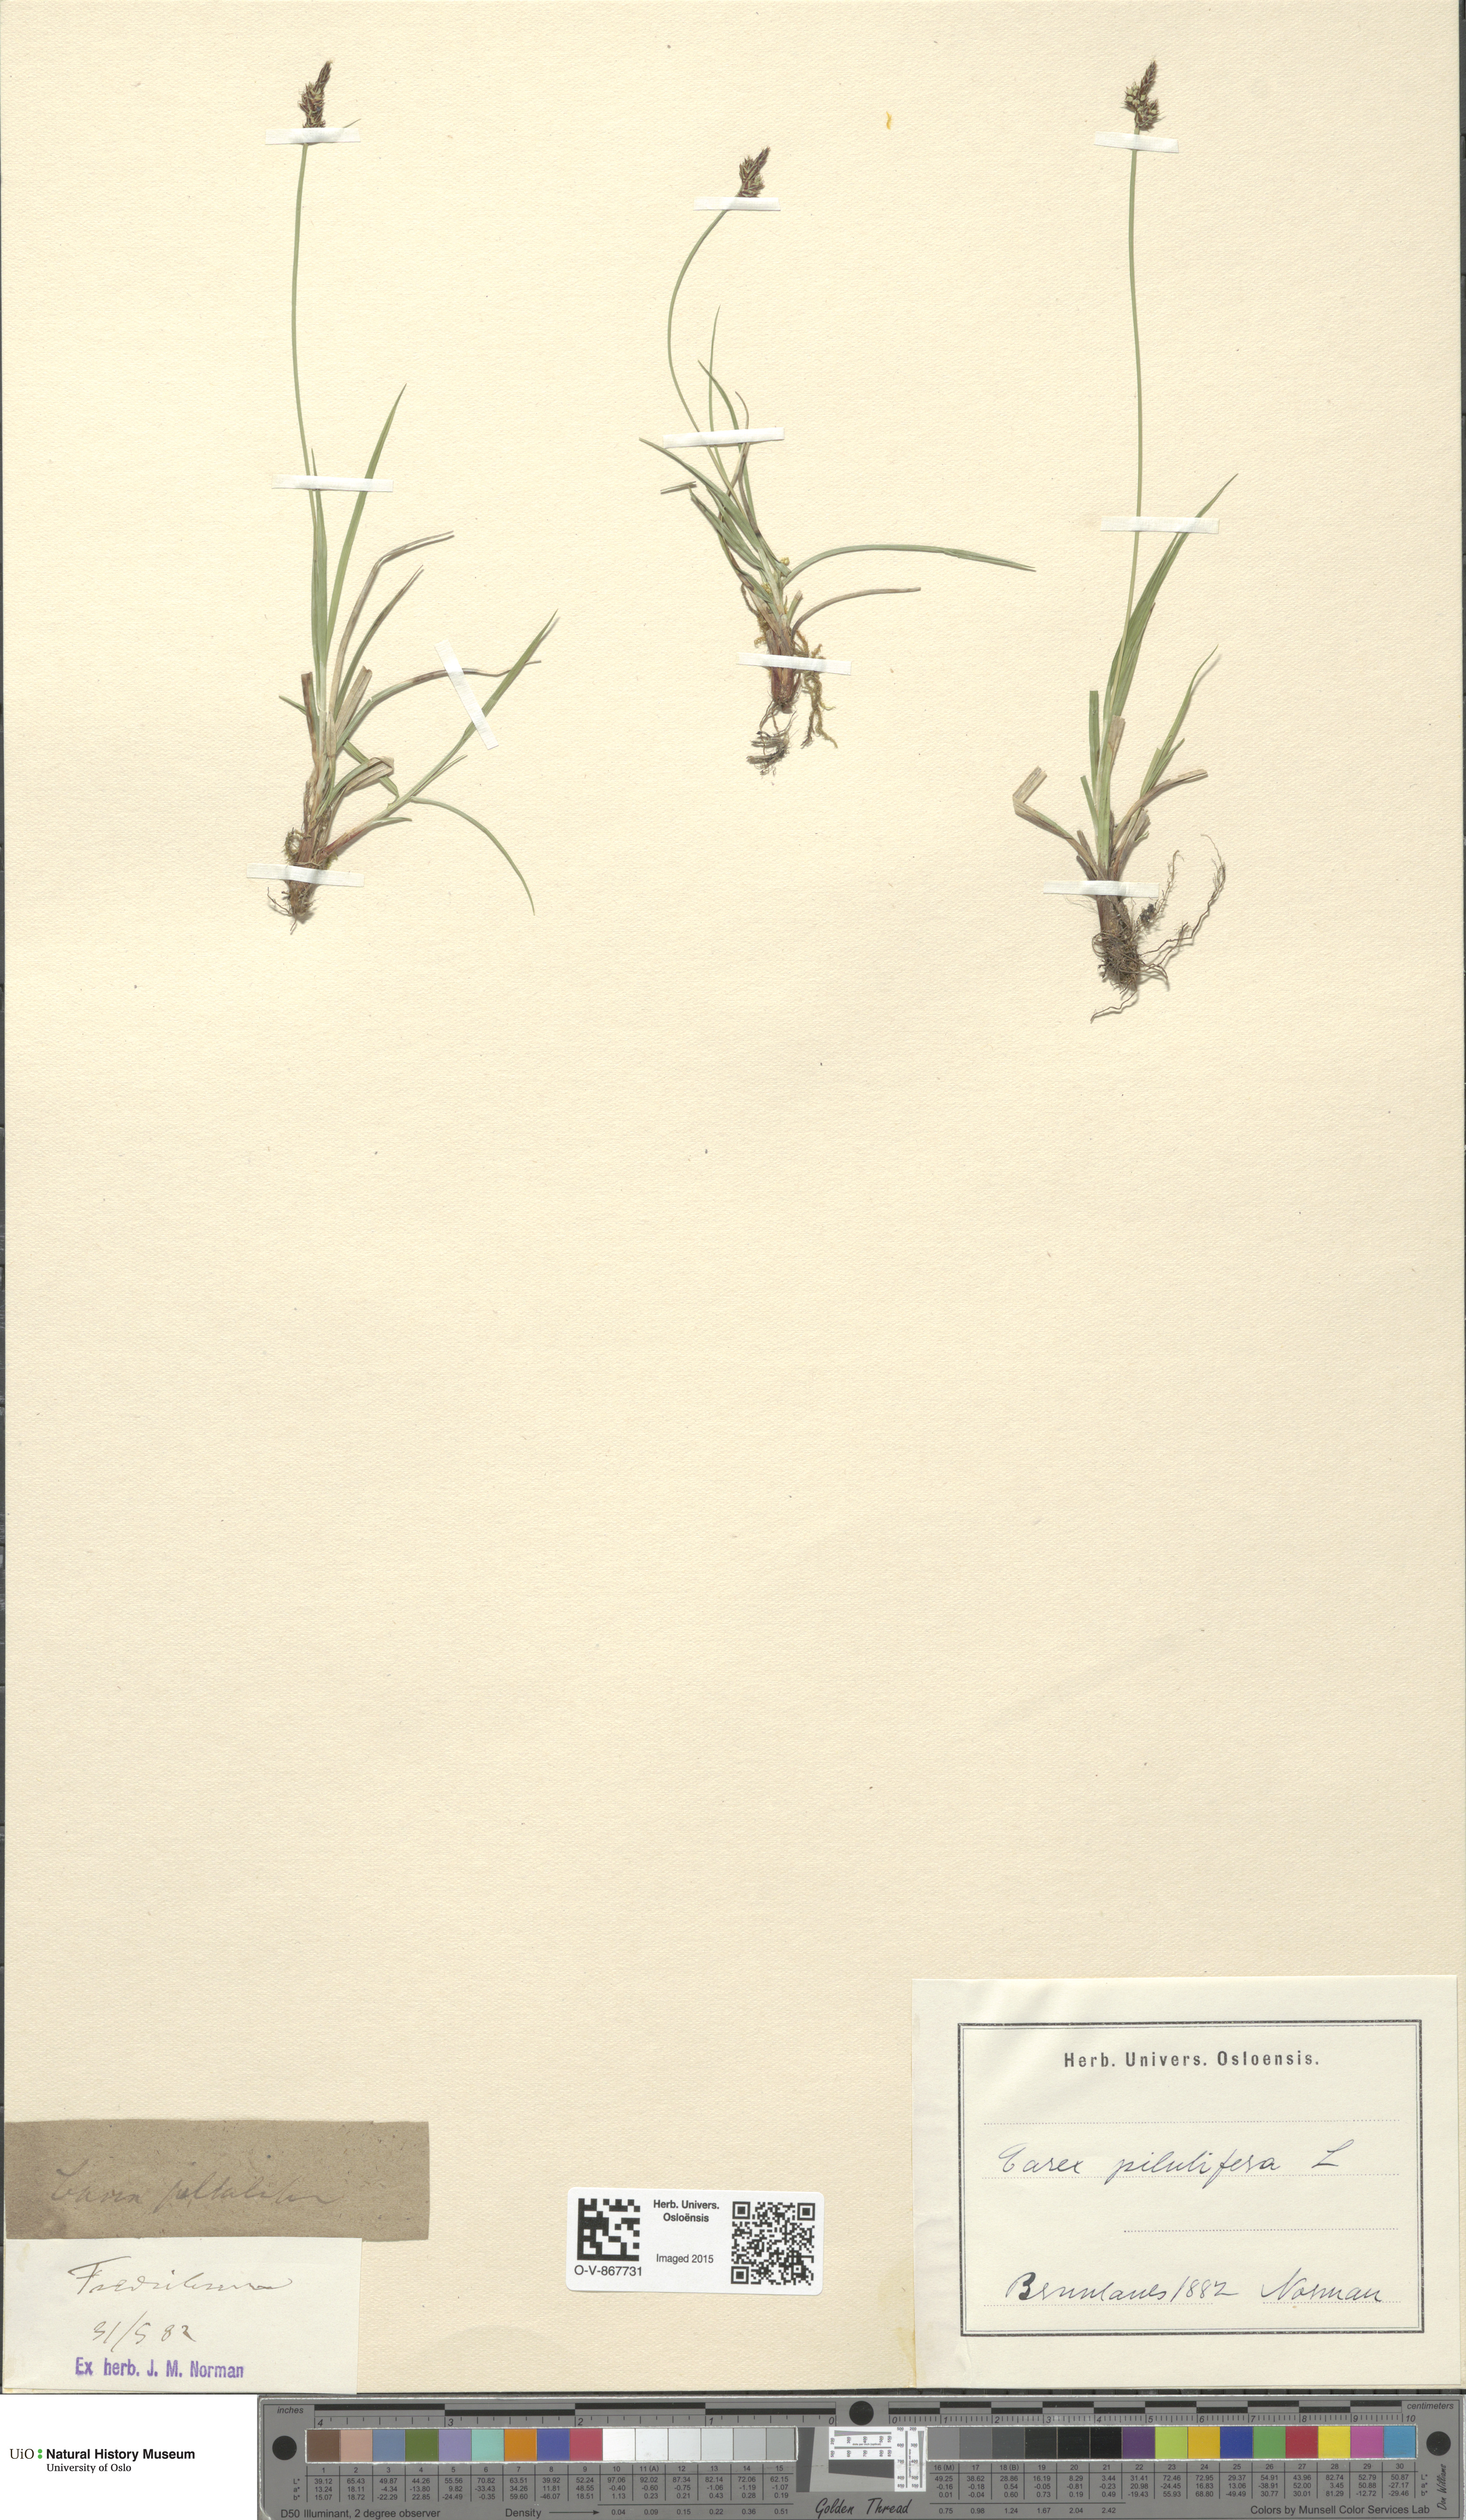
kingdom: Plantae
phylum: Tracheophyta
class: Liliopsida
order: Poales
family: Cyperaceae
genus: Carex
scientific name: Carex pilulifera
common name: Pill sedge
